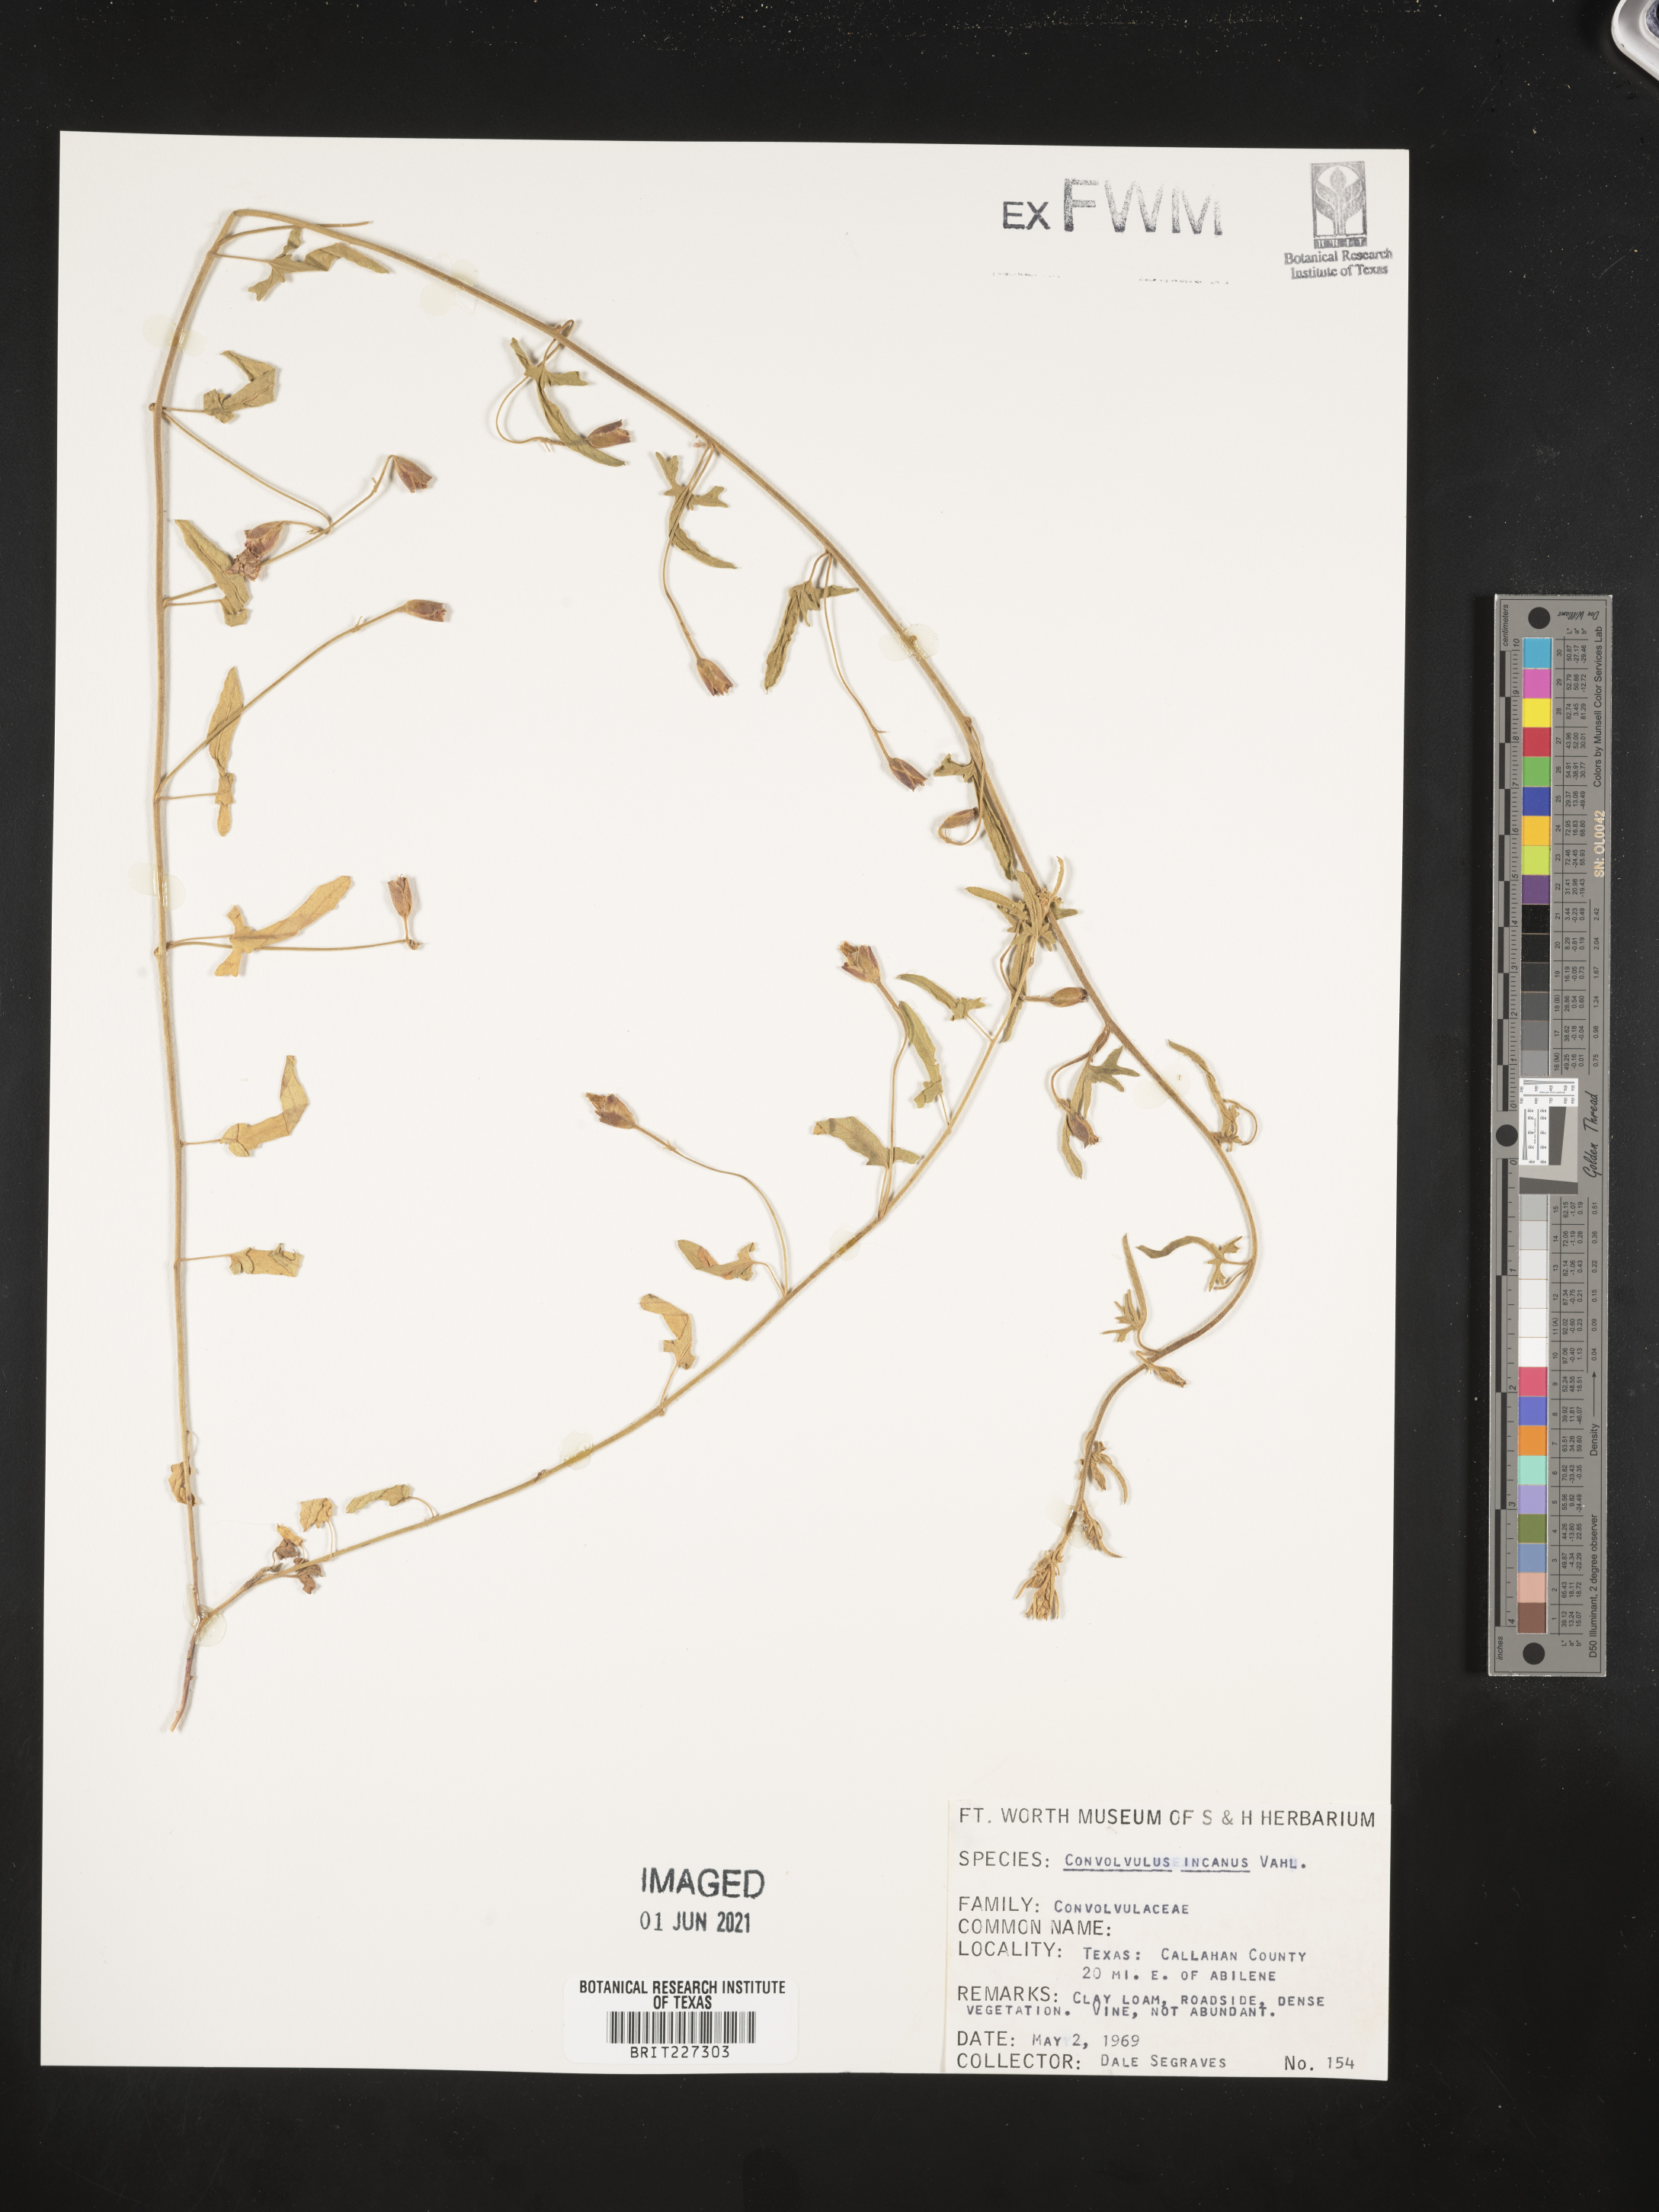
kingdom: Plantae
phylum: Tracheophyta
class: Magnoliopsida
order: Solanales
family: Convolvulaceae
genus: Convolvulus
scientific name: Convolvulus hermanniae
